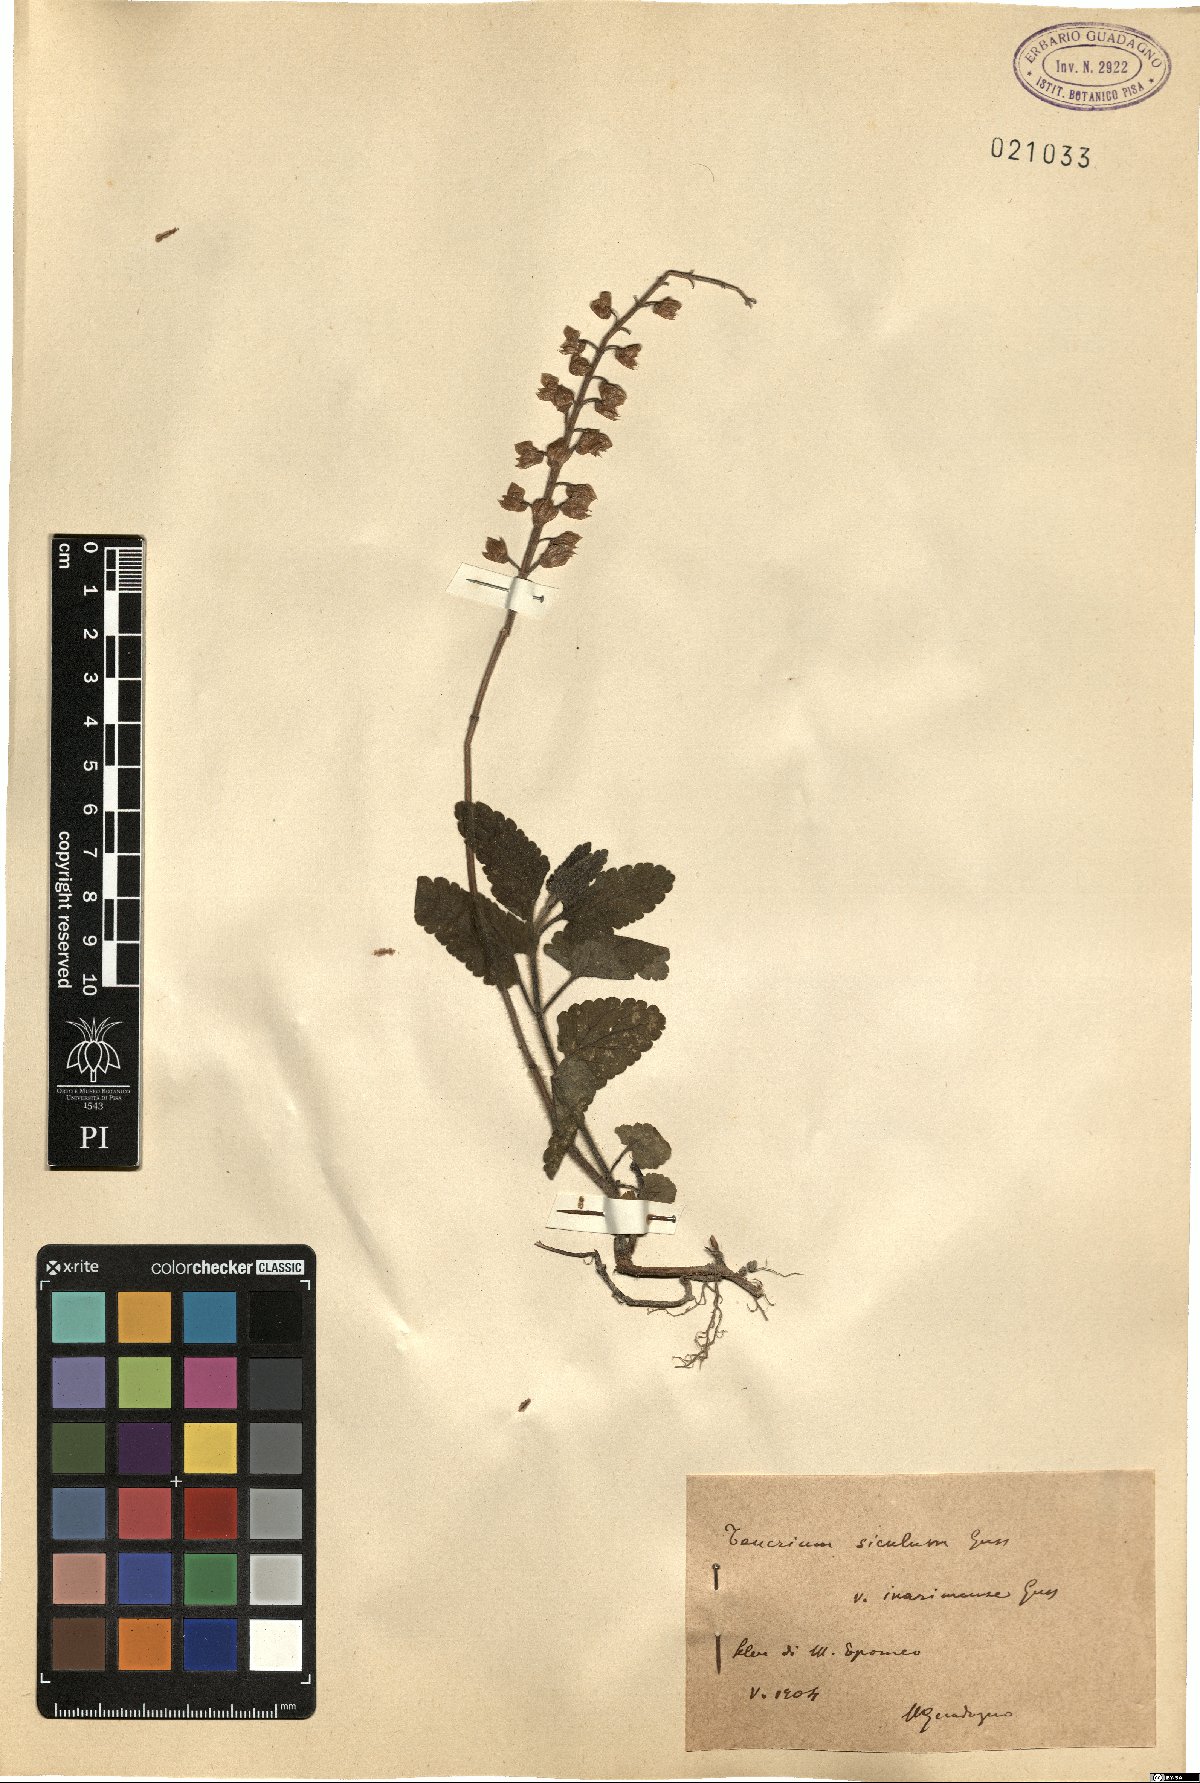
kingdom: Plantae
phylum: Tracheophyta
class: Magnoliopsida
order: Lamiales
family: Lamiaceae
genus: Teucrium
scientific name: Teucrium siculum
